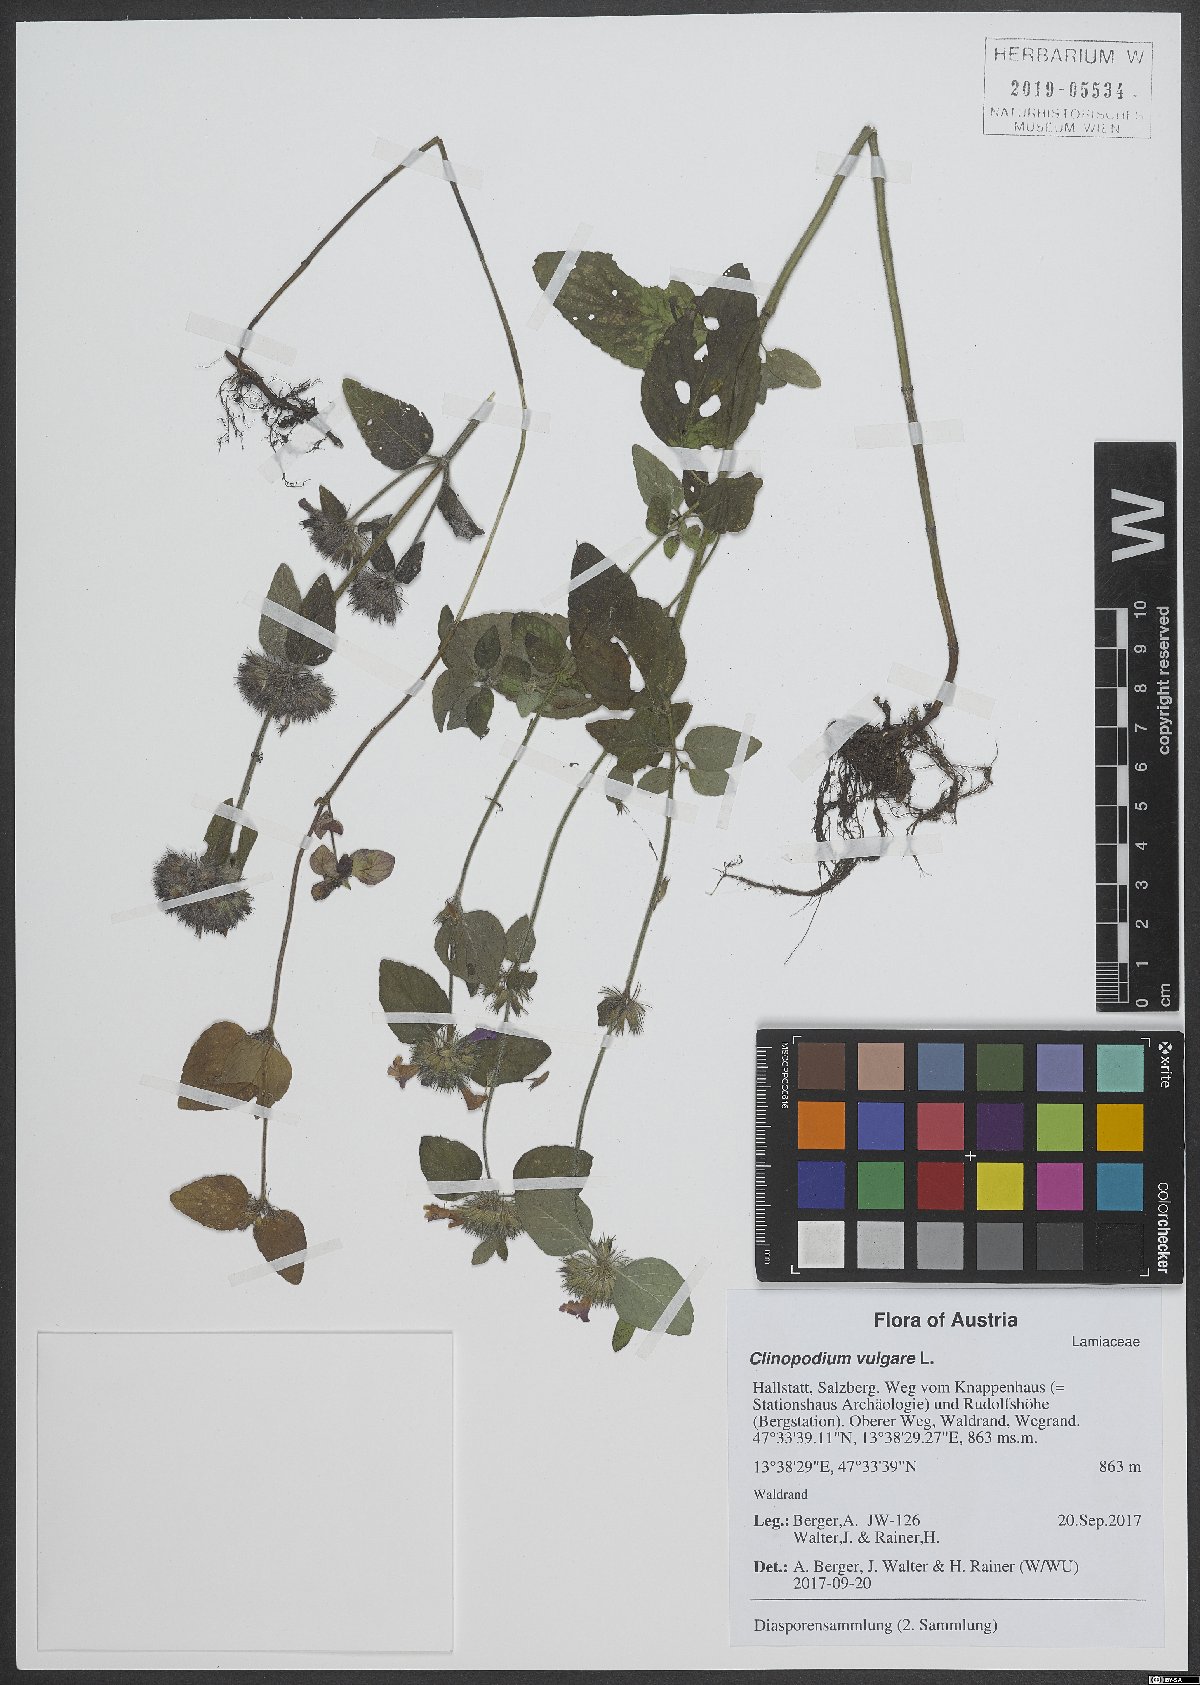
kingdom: Plantae
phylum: Tracheophyta
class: Magnoliopsida
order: Lamiales
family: Lamiaceae
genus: Clinopodium
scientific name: Clinopodium vulgare
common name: Wild basil
